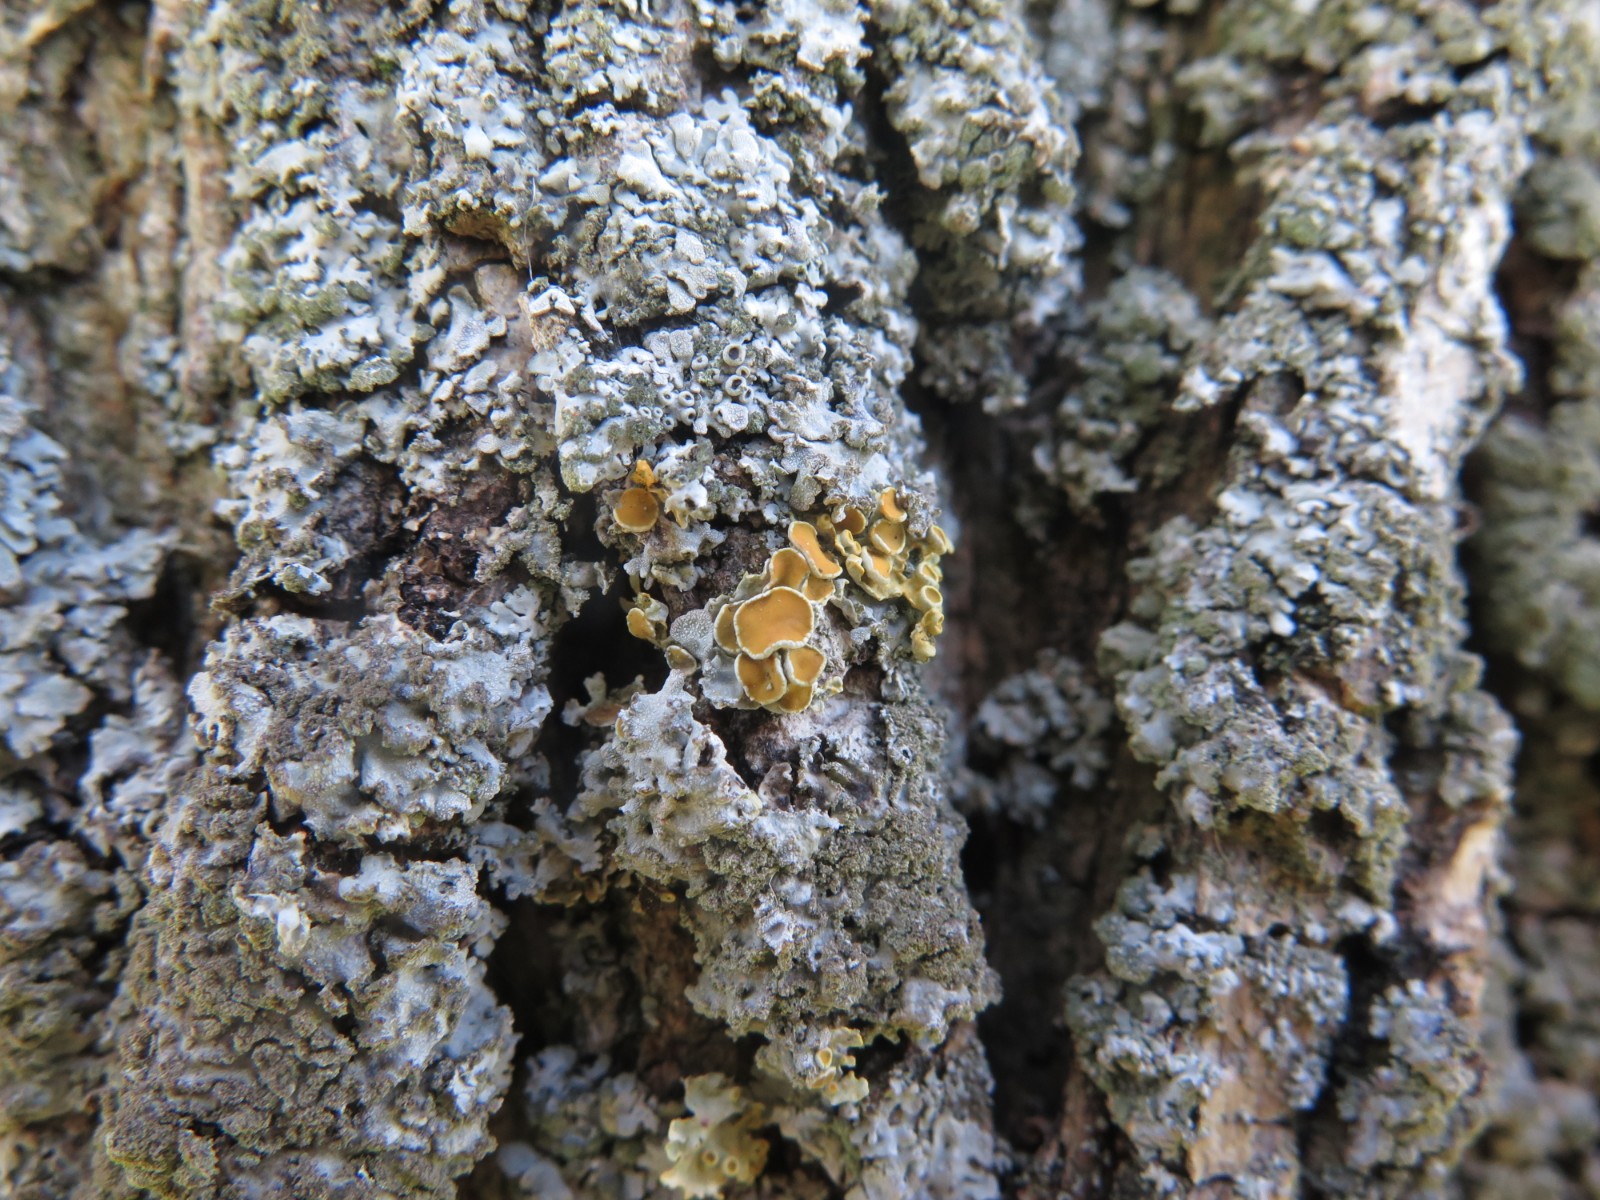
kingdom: Fungi
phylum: Ascomycota
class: Lecanoromycetes
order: Teloschistales
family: Teloschistaceae
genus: Polycauliona
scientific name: Polycauliona polycarpa
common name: mangefrugtet orangelav
